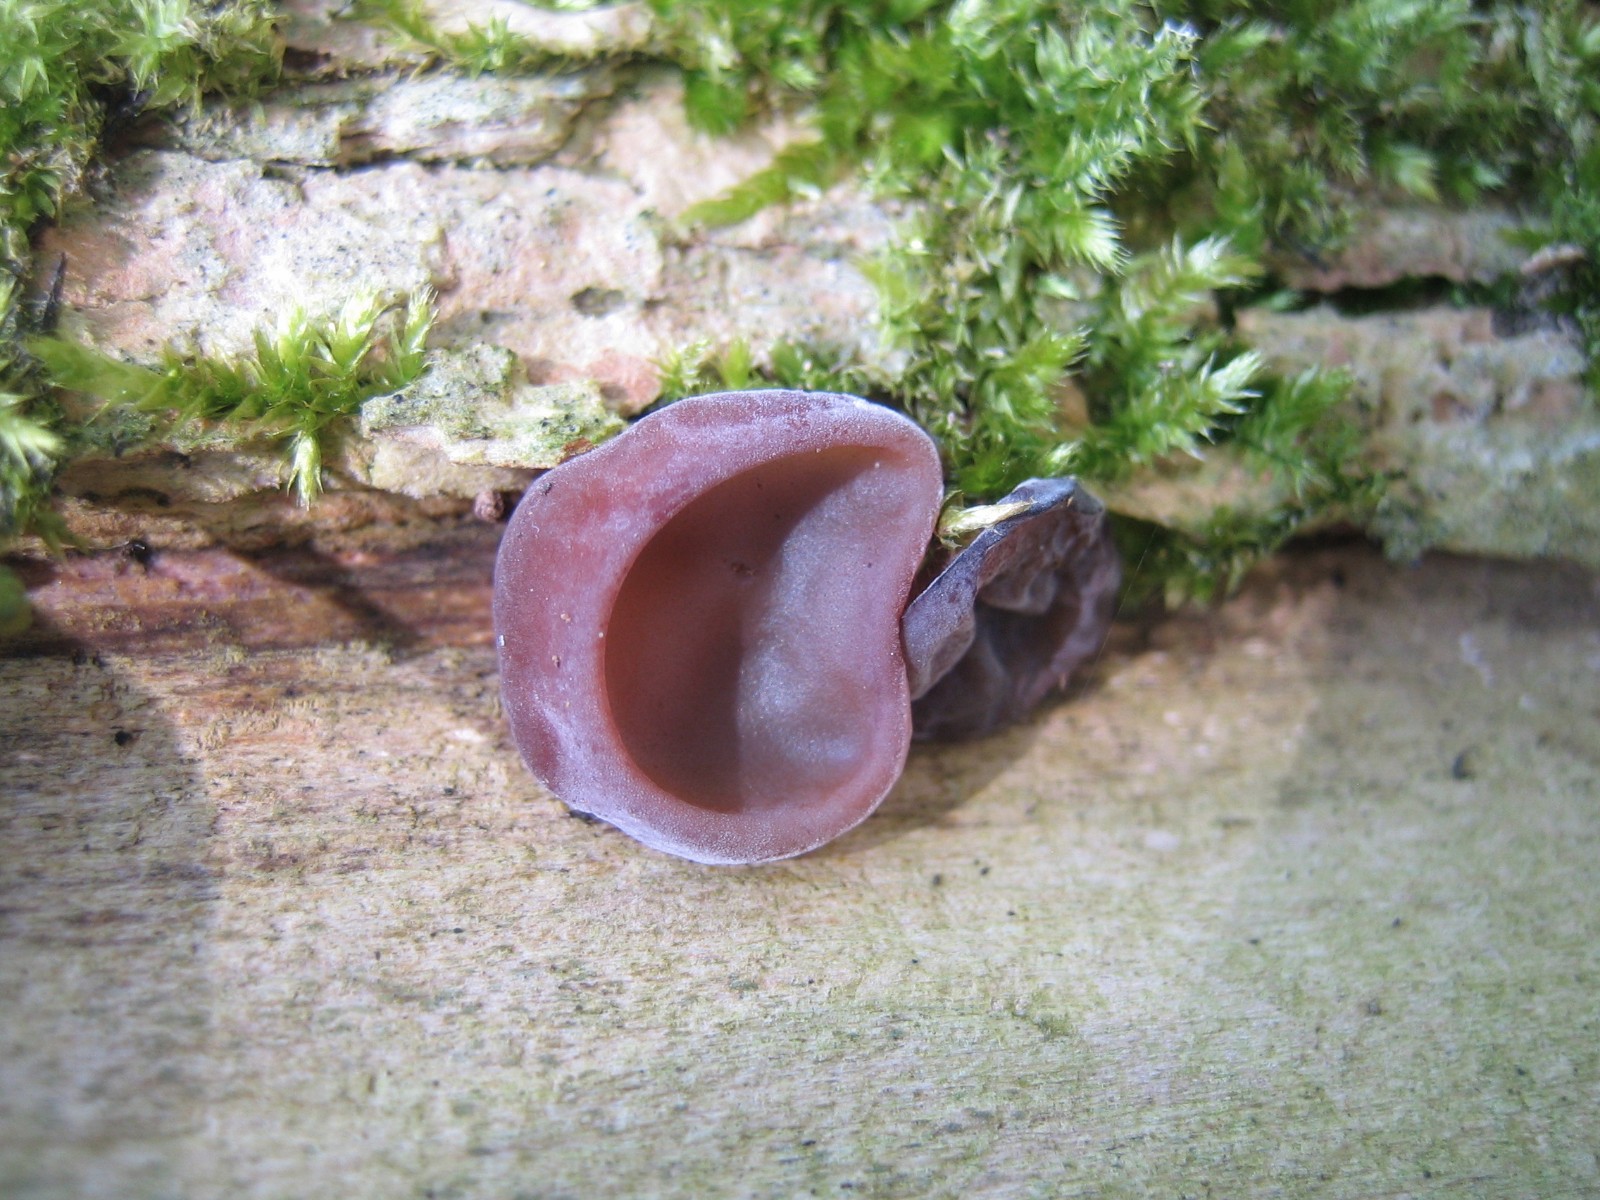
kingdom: Fungi
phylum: Basidiomycota
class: Agaricomycetes
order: Auriculariales
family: Auriculariaceae
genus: Auricularia
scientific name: Auricularia auricula-judae
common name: almindelig judasøre
